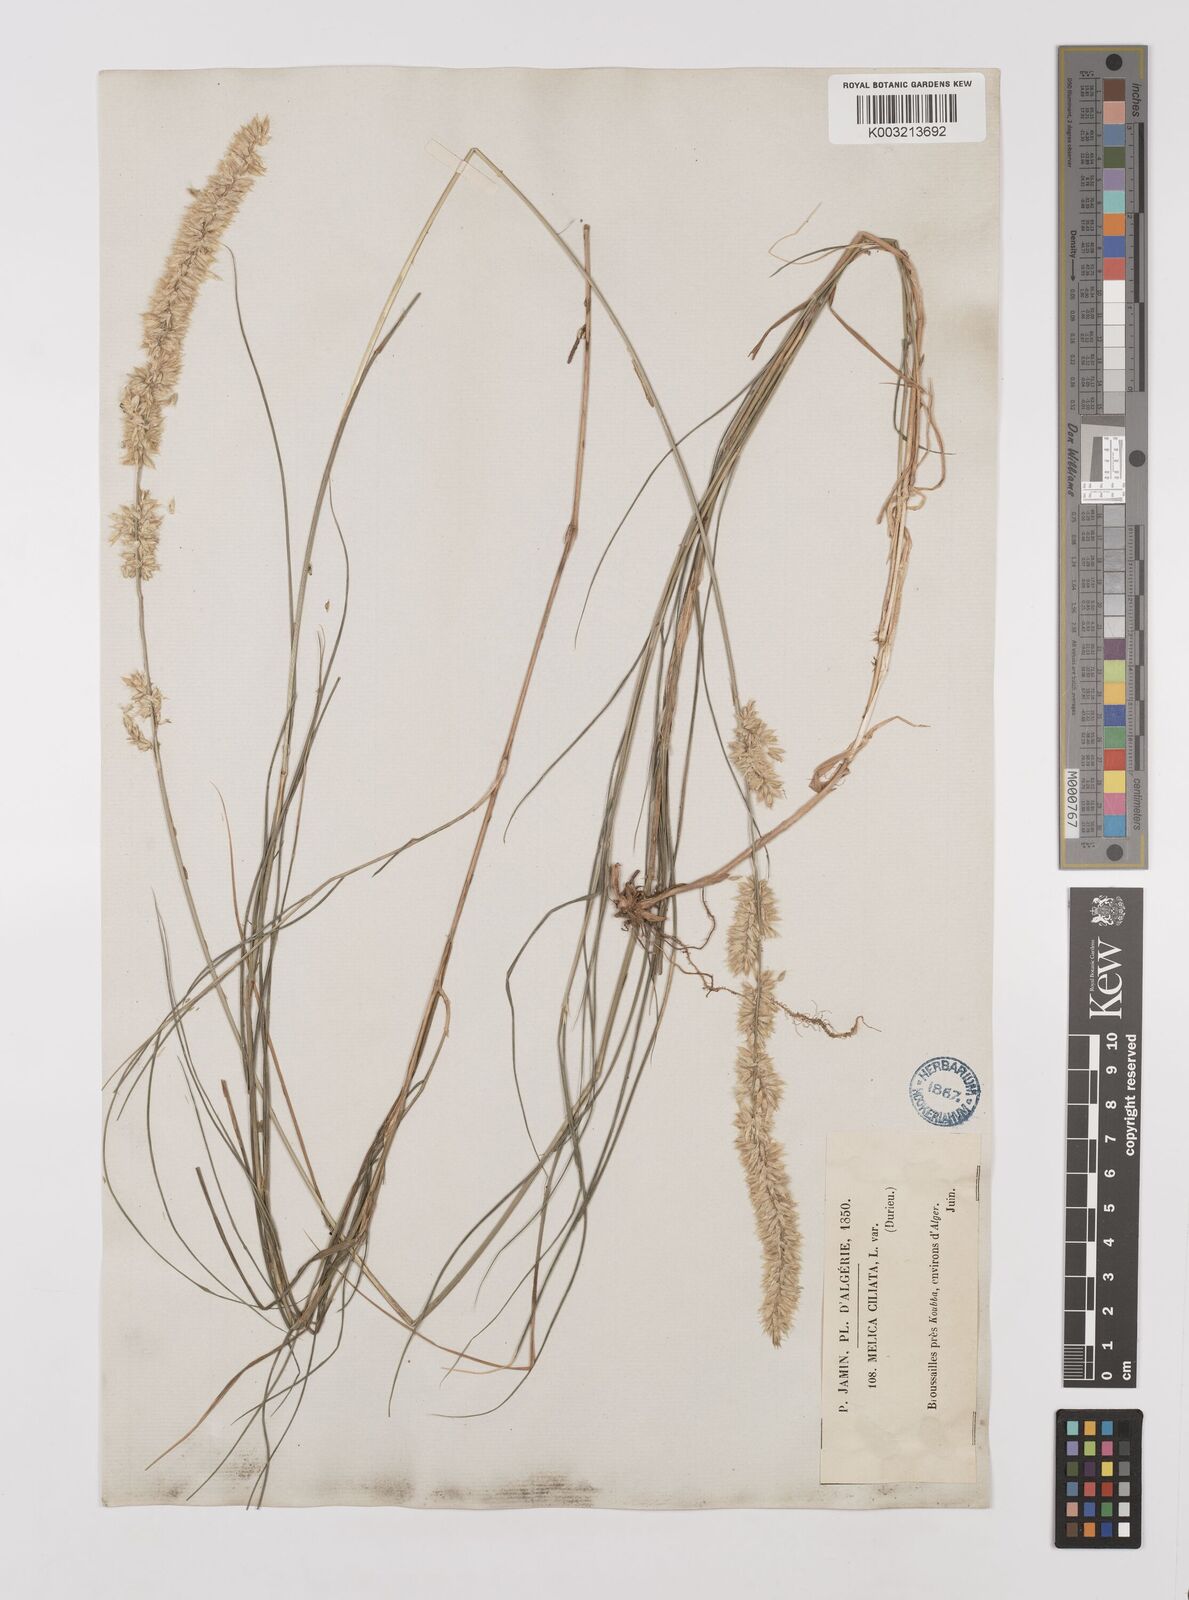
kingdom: Plantae
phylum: Tracheophyta
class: Liliopsida
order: Poales
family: Poaceae
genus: Melica
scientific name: Melica ciliata
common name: Hairy melicgrass
